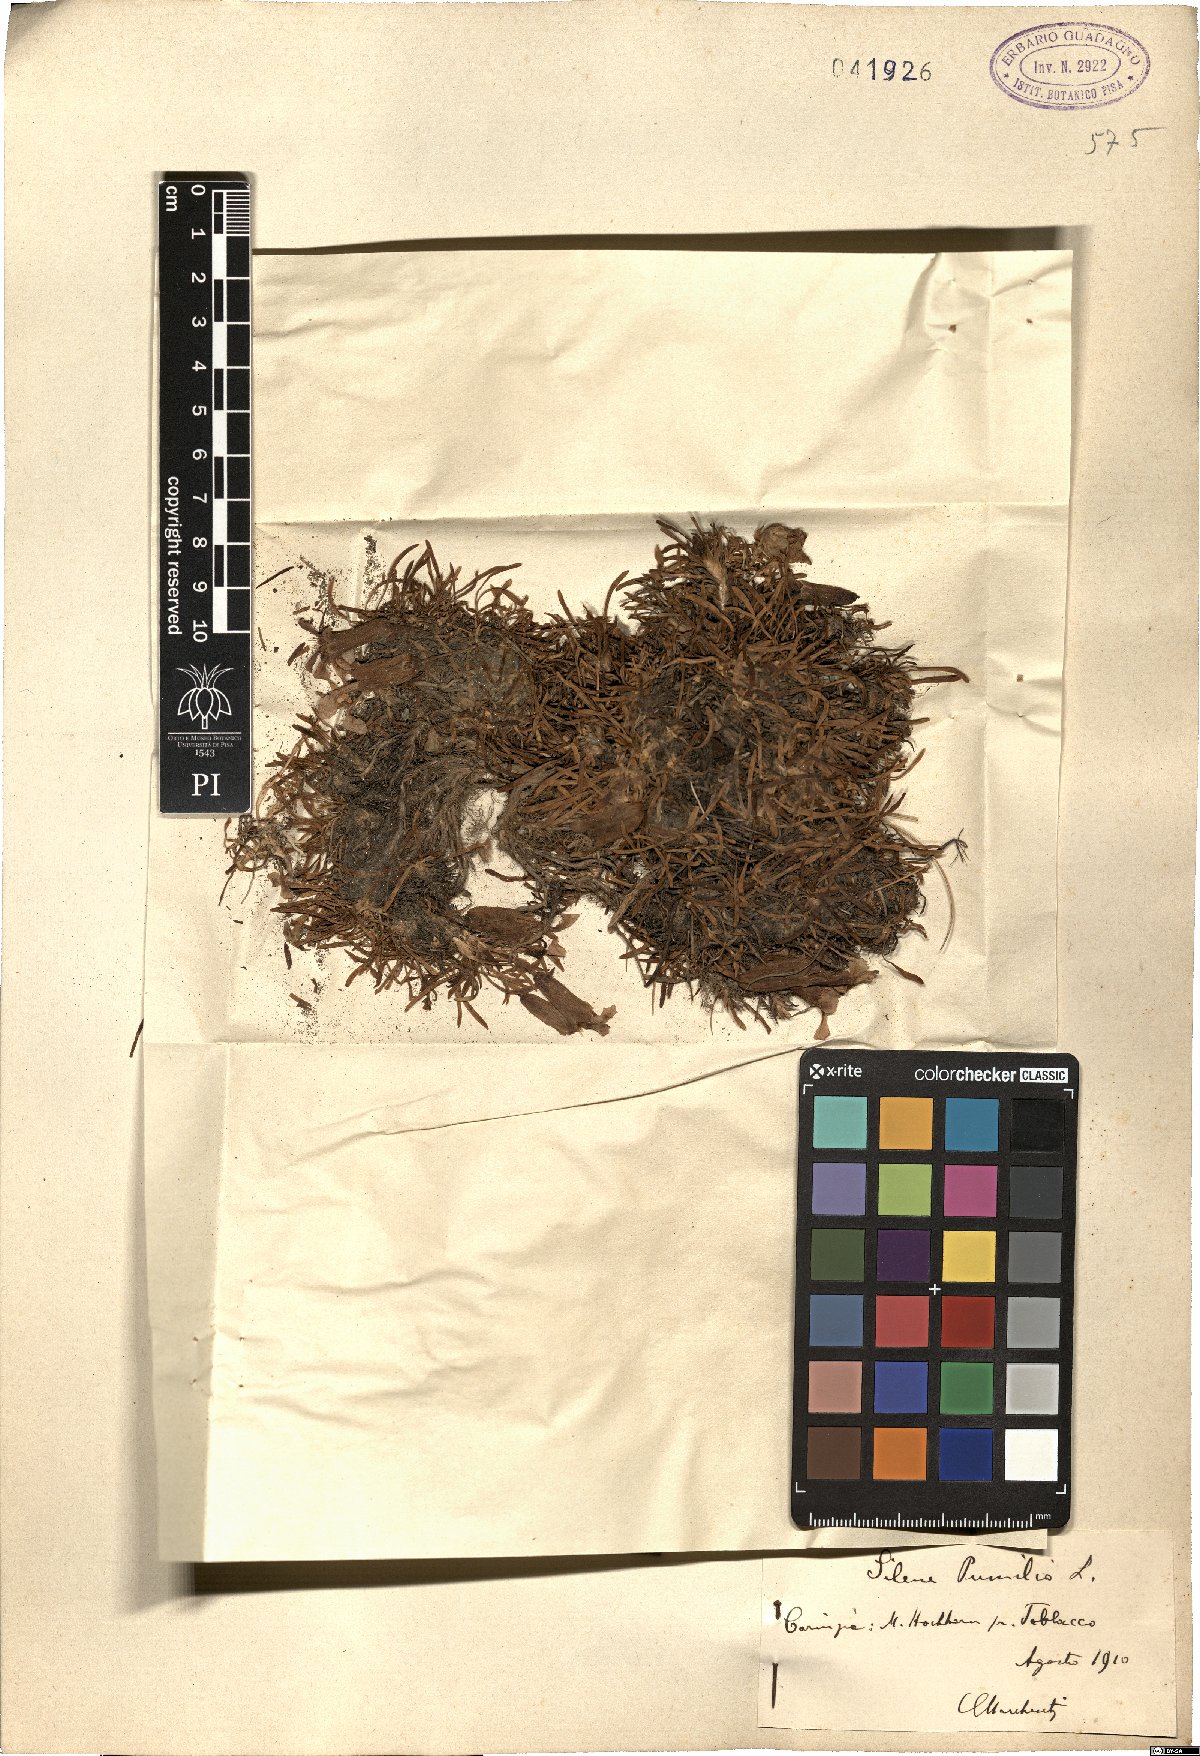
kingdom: Plantae
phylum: Tracheophyta
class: Magnoliopsida
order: Caryophyllales
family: Caryophyllaceae
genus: Saponaria
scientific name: Saponaria pumila
